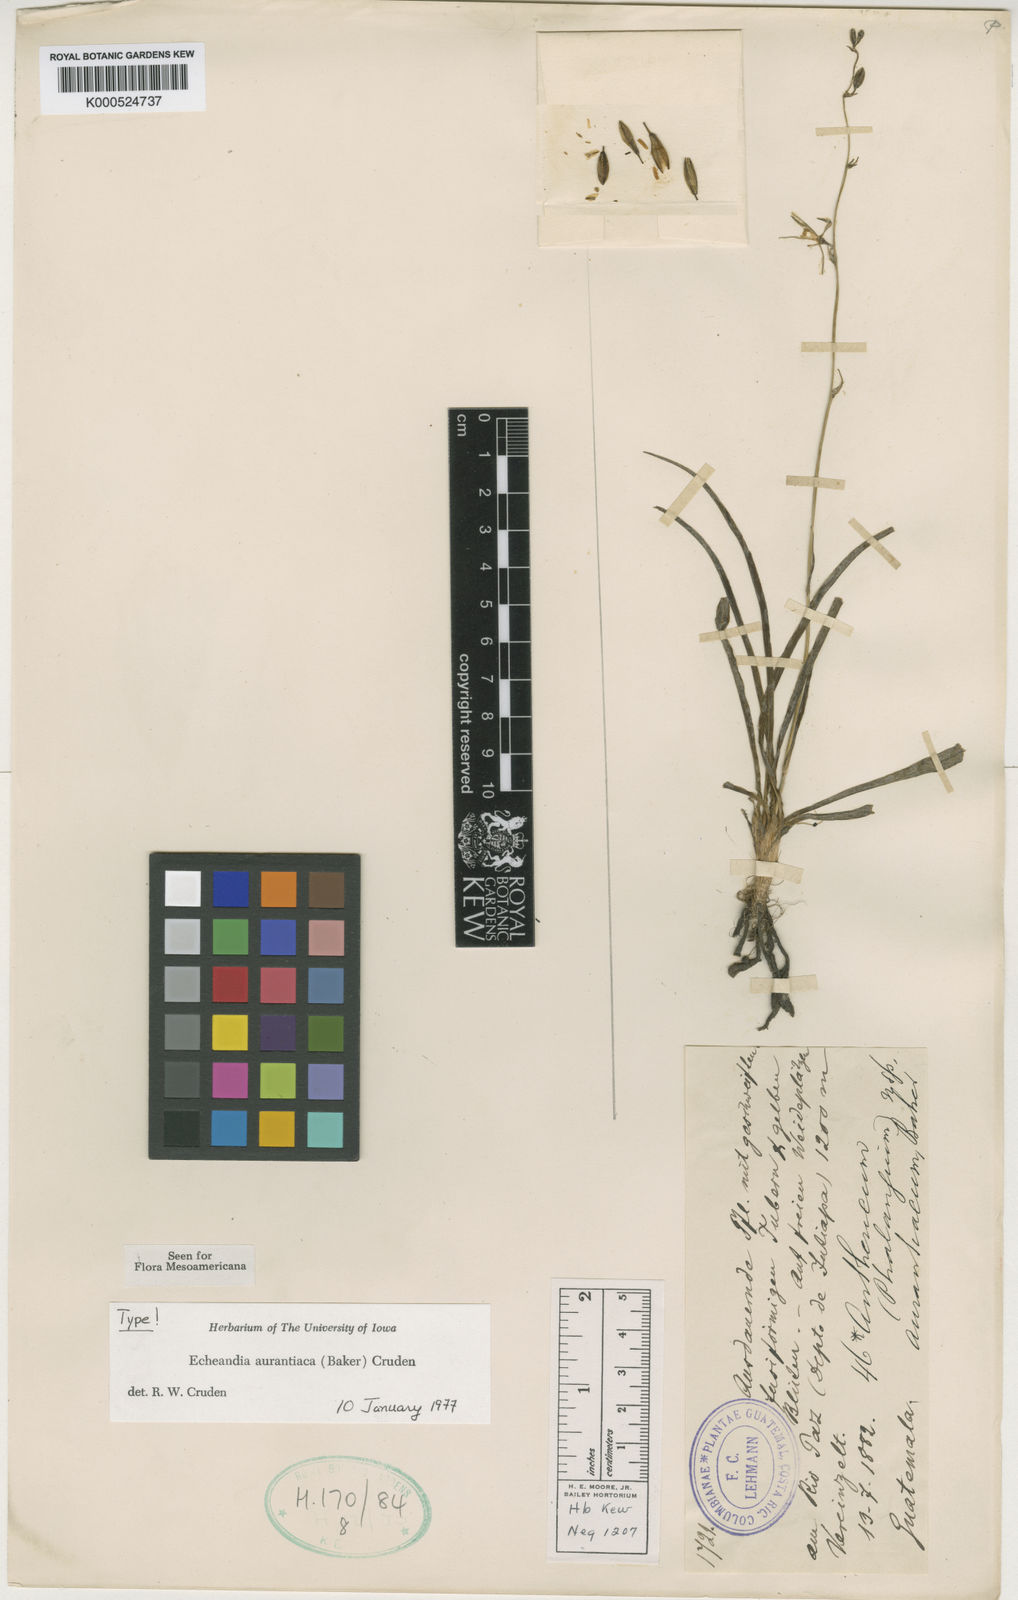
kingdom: Plantae
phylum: Tracheophyta
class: Liliopsida
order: Asparagales
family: Asparagaceae
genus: Echeandia
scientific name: Echeandia skinneri
